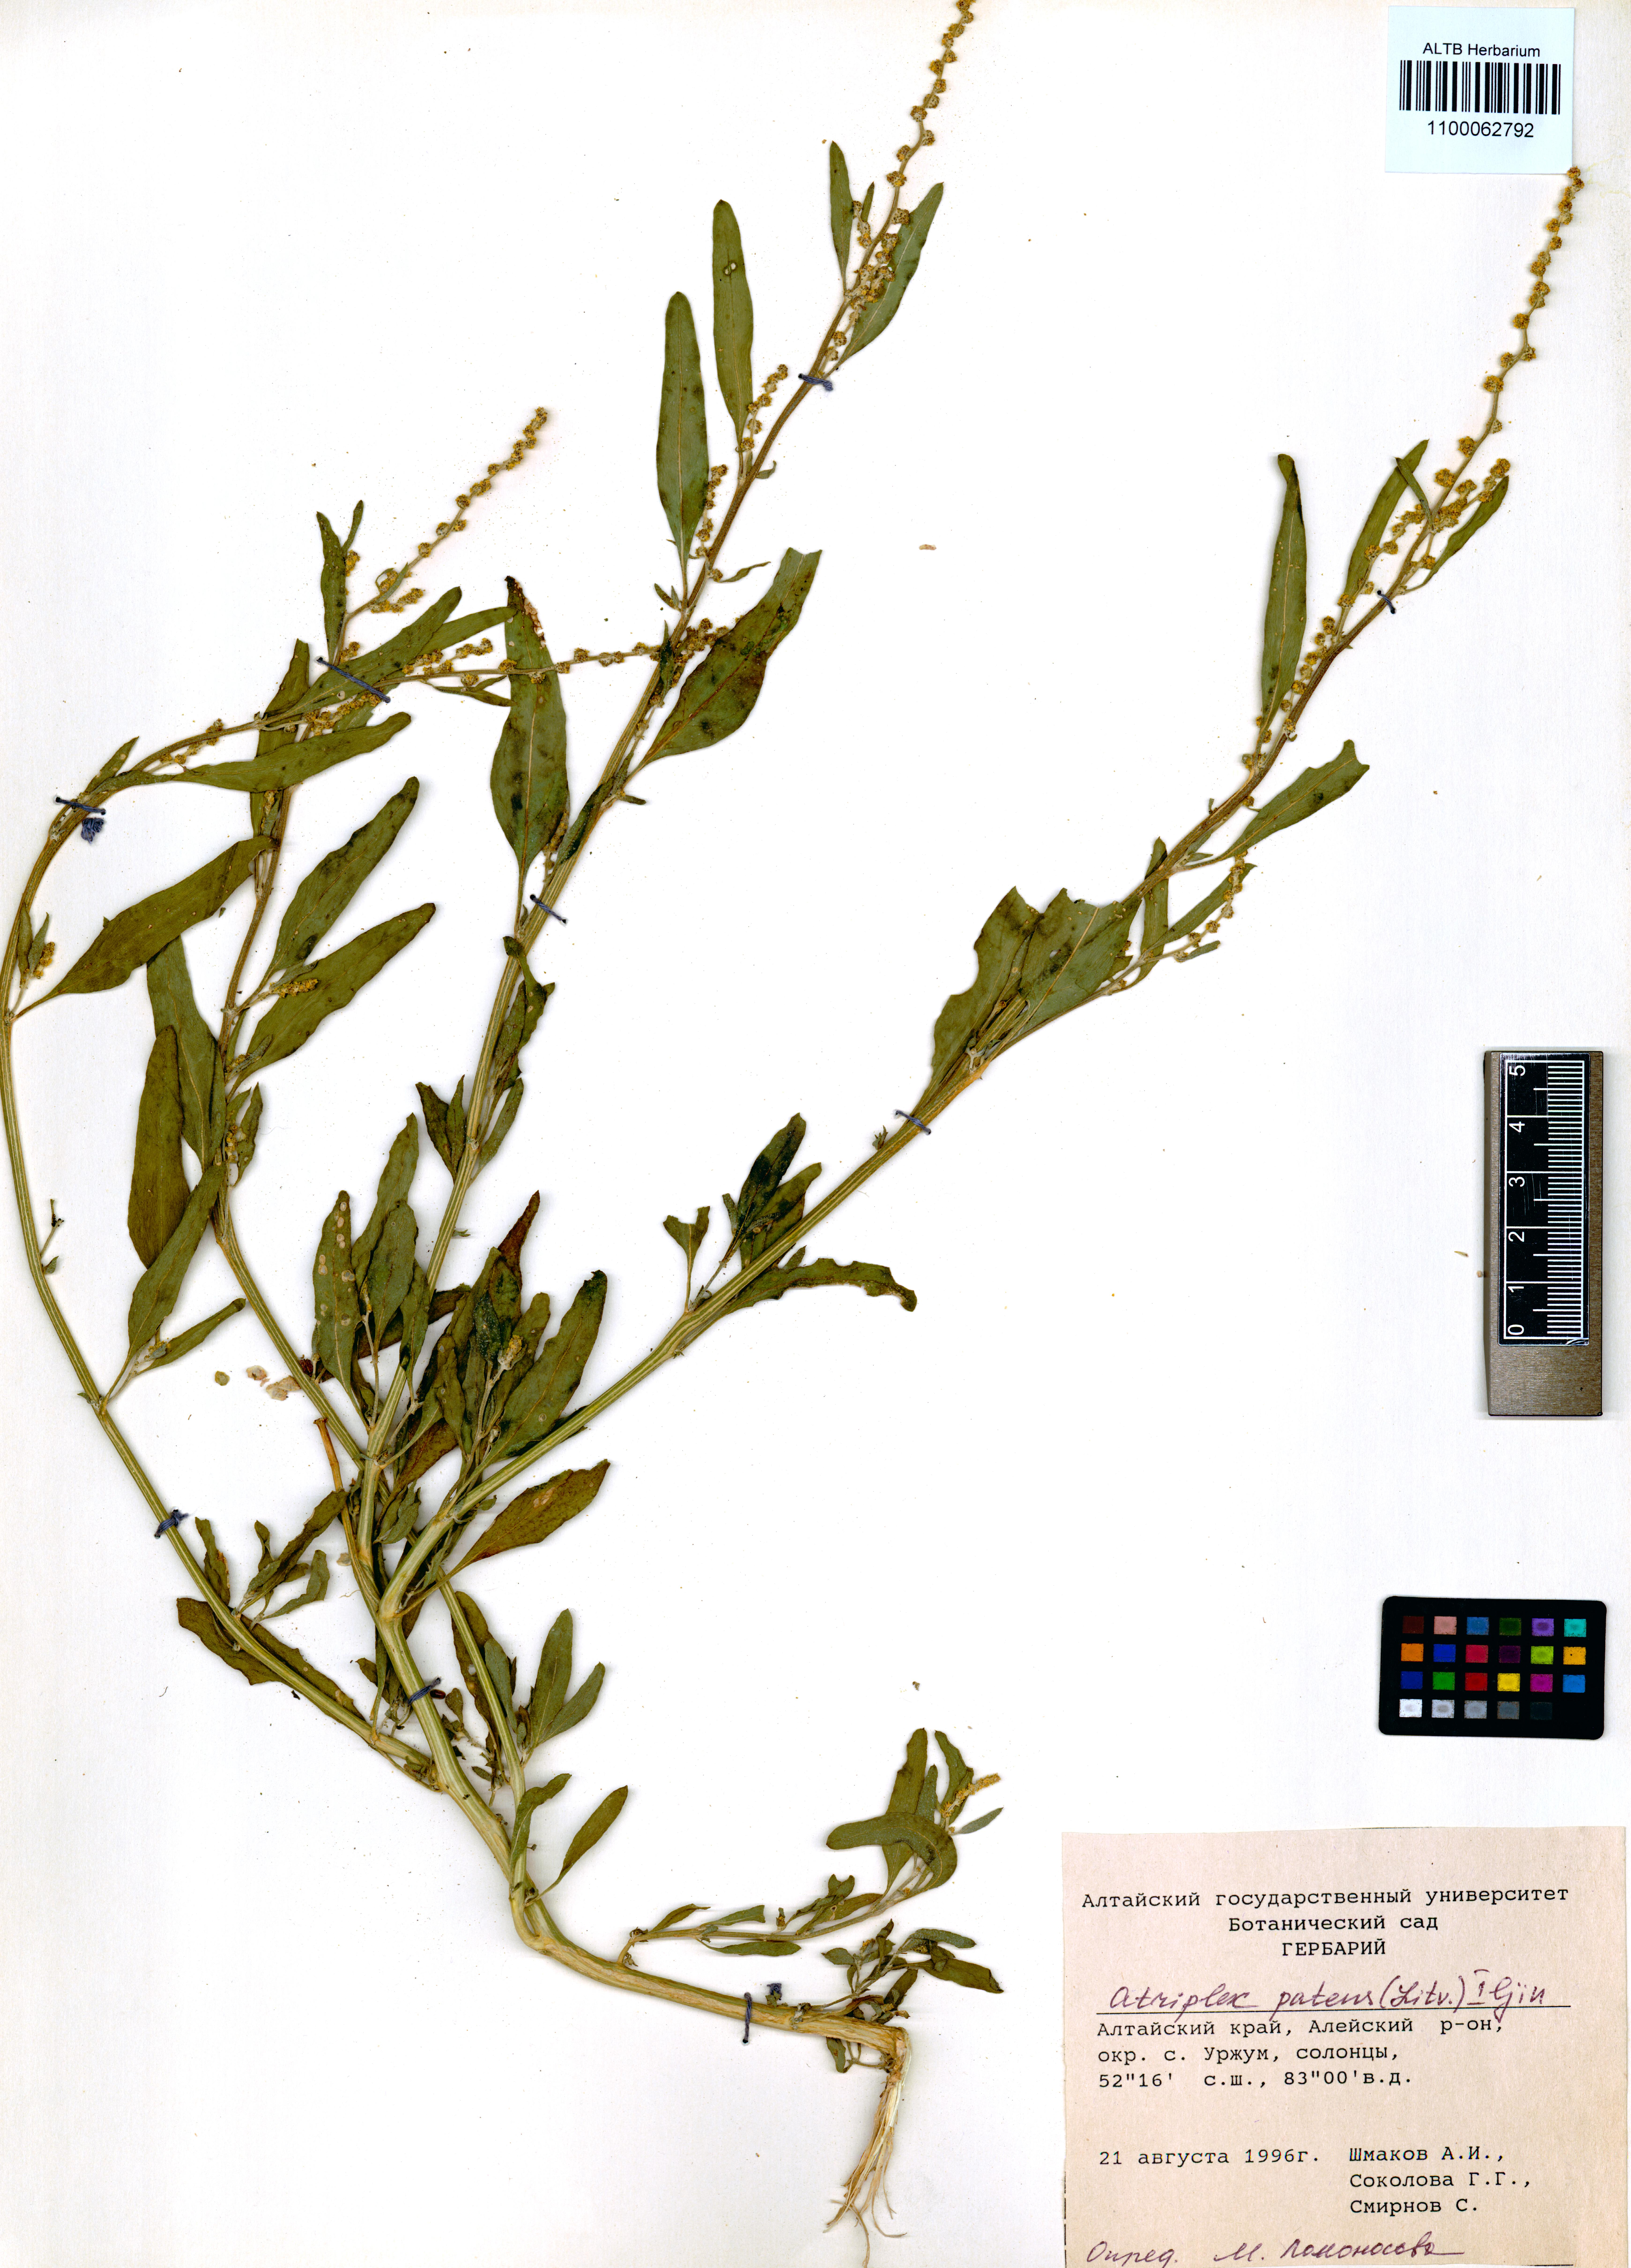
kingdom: Plantae
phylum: Tracheophyta
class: Magnoliopsida
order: Caryophyllales
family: Amaranthaceae
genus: Atriplex
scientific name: Atriplex patens
